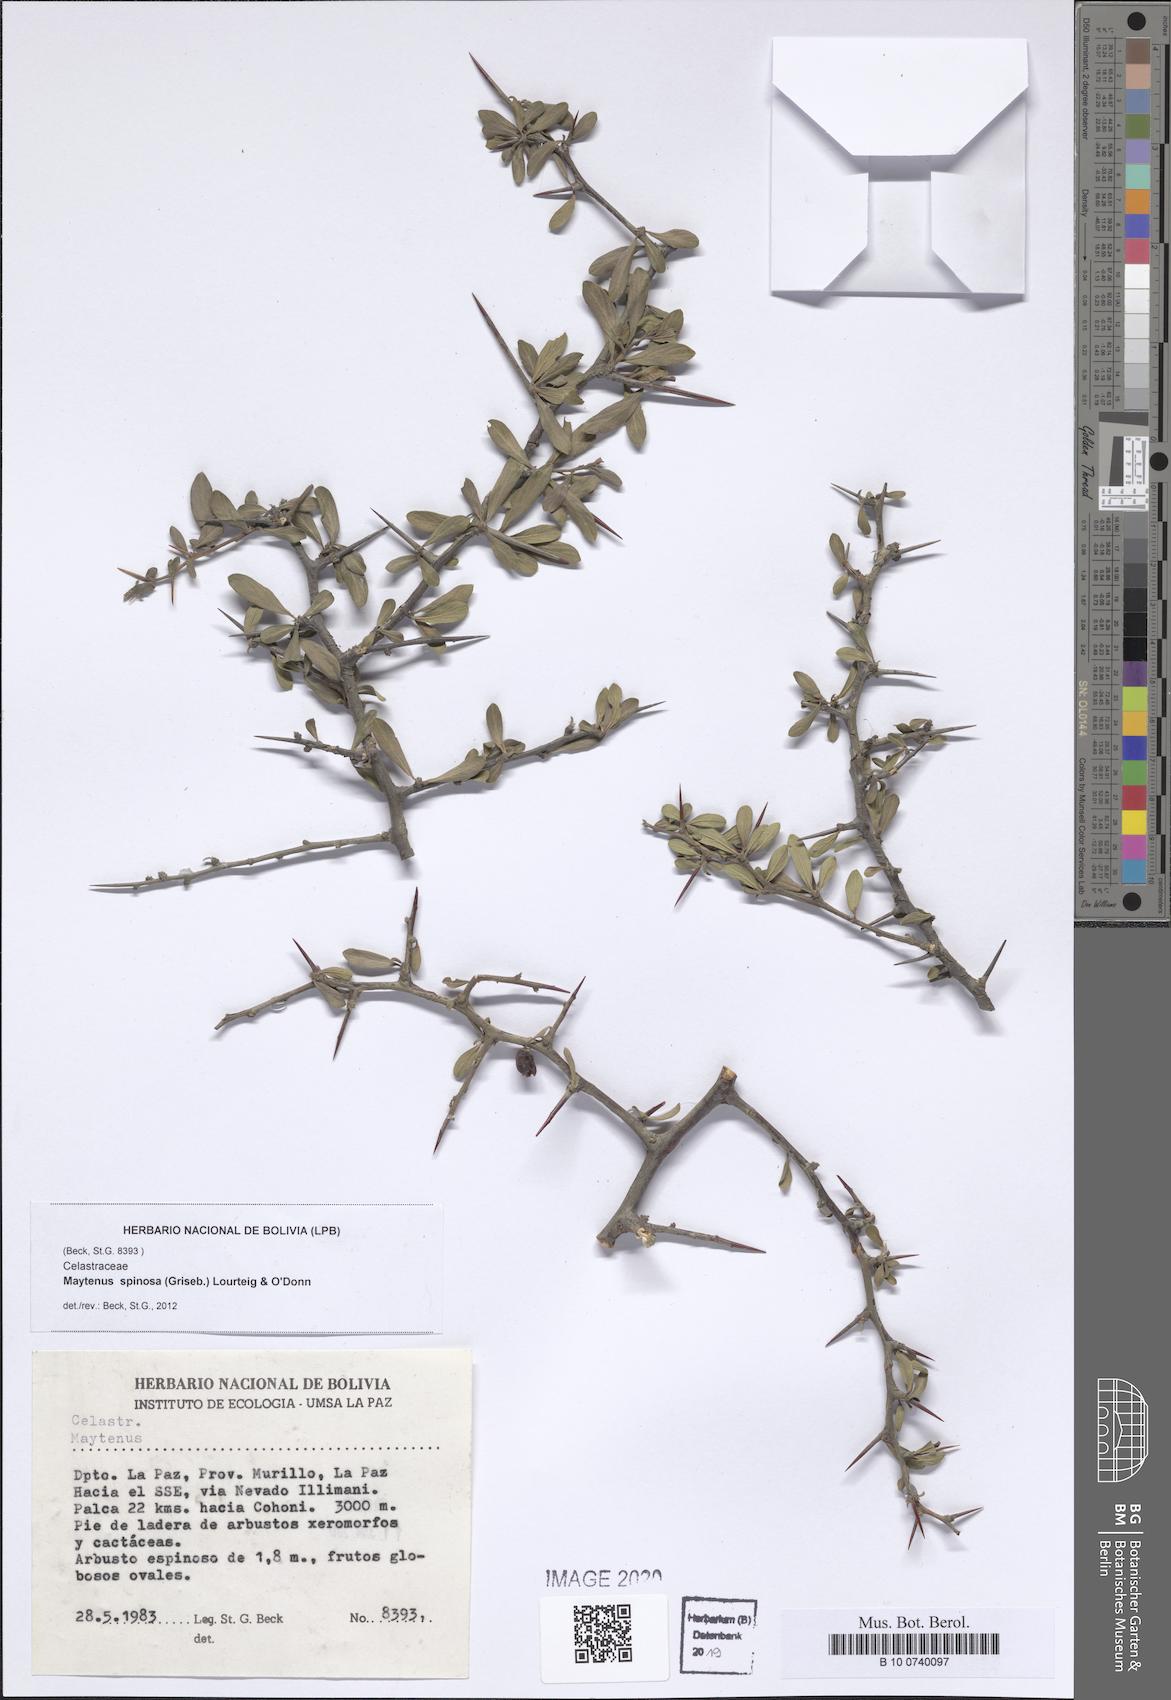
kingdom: Plantae
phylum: Tracheophyta
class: Magnoliopsida
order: Celastrales
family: Celastraceae
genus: Monteverdia
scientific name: Monteverdia spinosa
